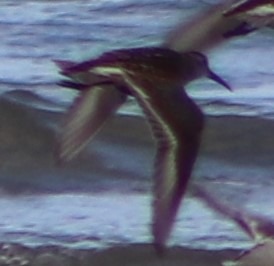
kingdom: Animalia
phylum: Chordata
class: Aves
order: Charadriiformes
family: Scolopacidae
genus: Calidris
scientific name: Calidris alpina
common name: Almindelig ryle
